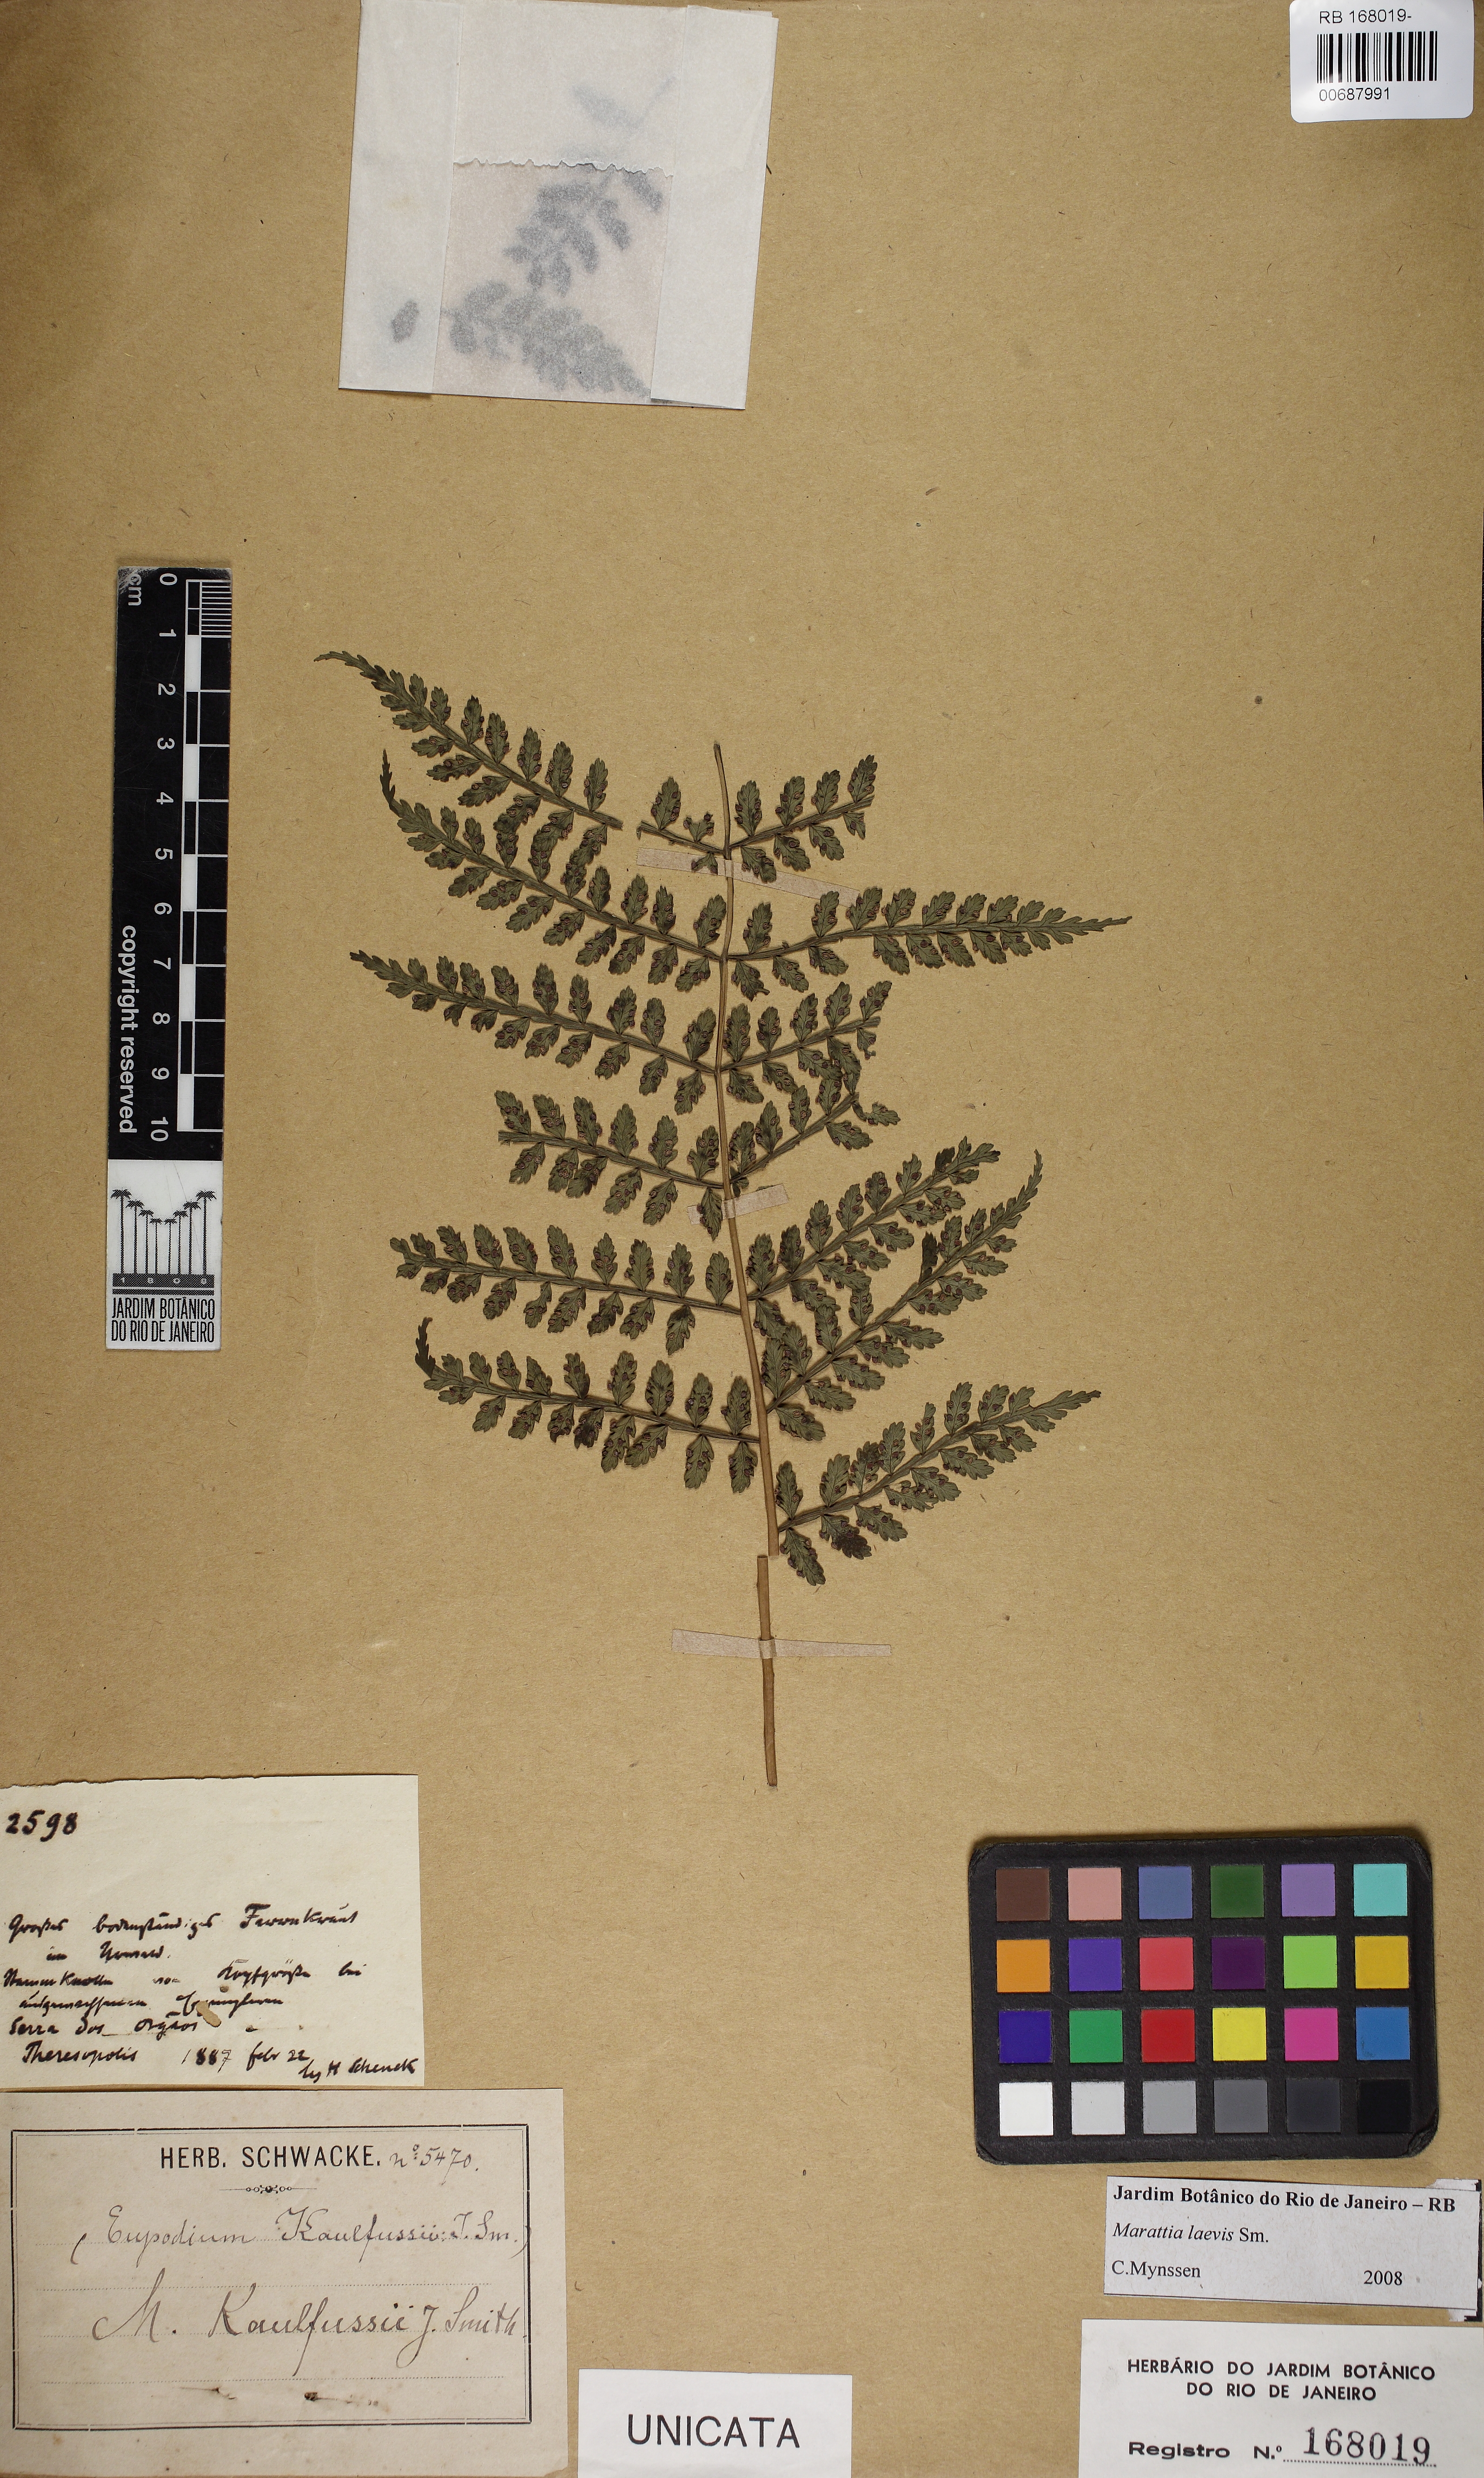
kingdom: Plantae
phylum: Tracheophyta
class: Polypodiopsida
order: Marattiales
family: Marattiaceae
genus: Eupodium
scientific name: Eupodium laeve
